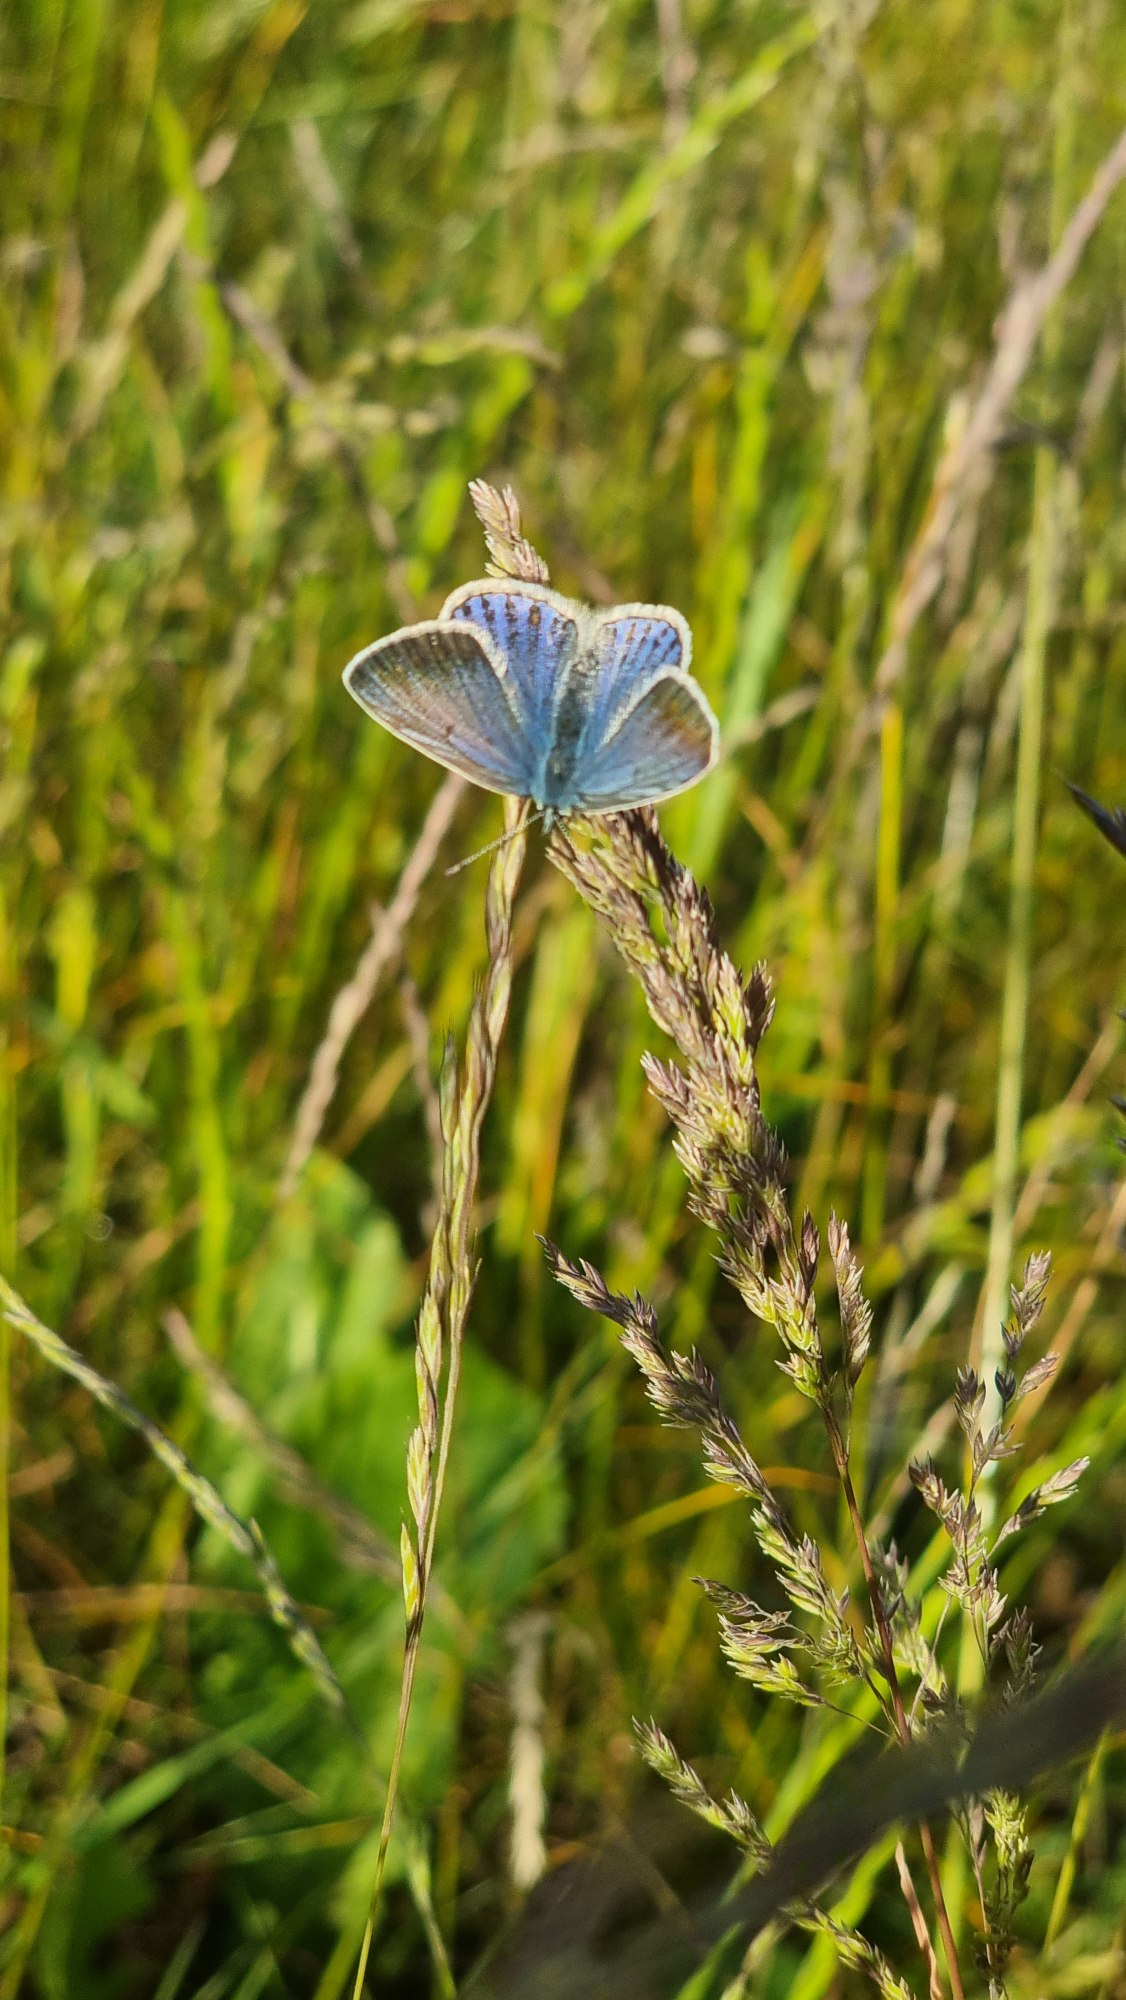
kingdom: Animalia
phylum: Arthropoda
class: Insecta
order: Lepidoptera
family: Lycaenidae
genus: Polyommatus
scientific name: Polyommatus icarus
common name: Almindelig blåfugl
